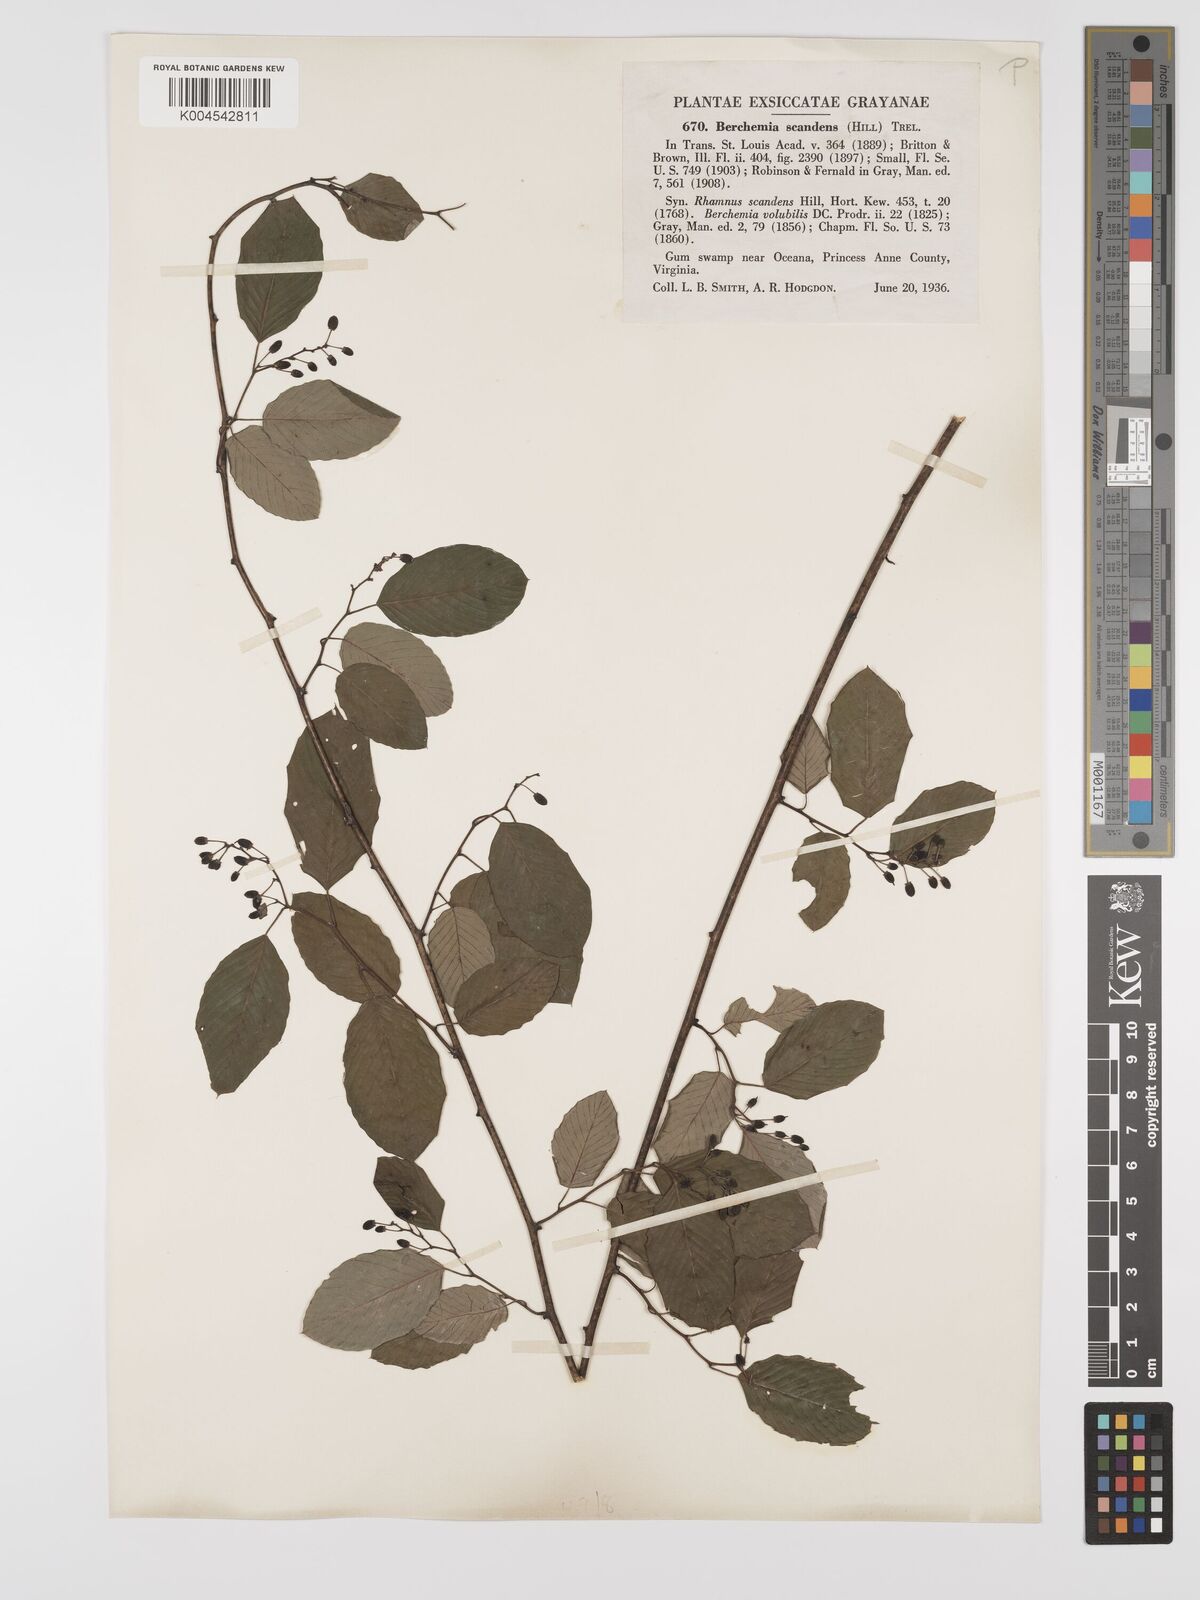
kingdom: Plantae
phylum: Tracheophyta
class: Magnoliopsida
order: Rosales
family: Rhamnaceae
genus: Berchemia
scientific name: Berchemia scandens
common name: Supplejack
